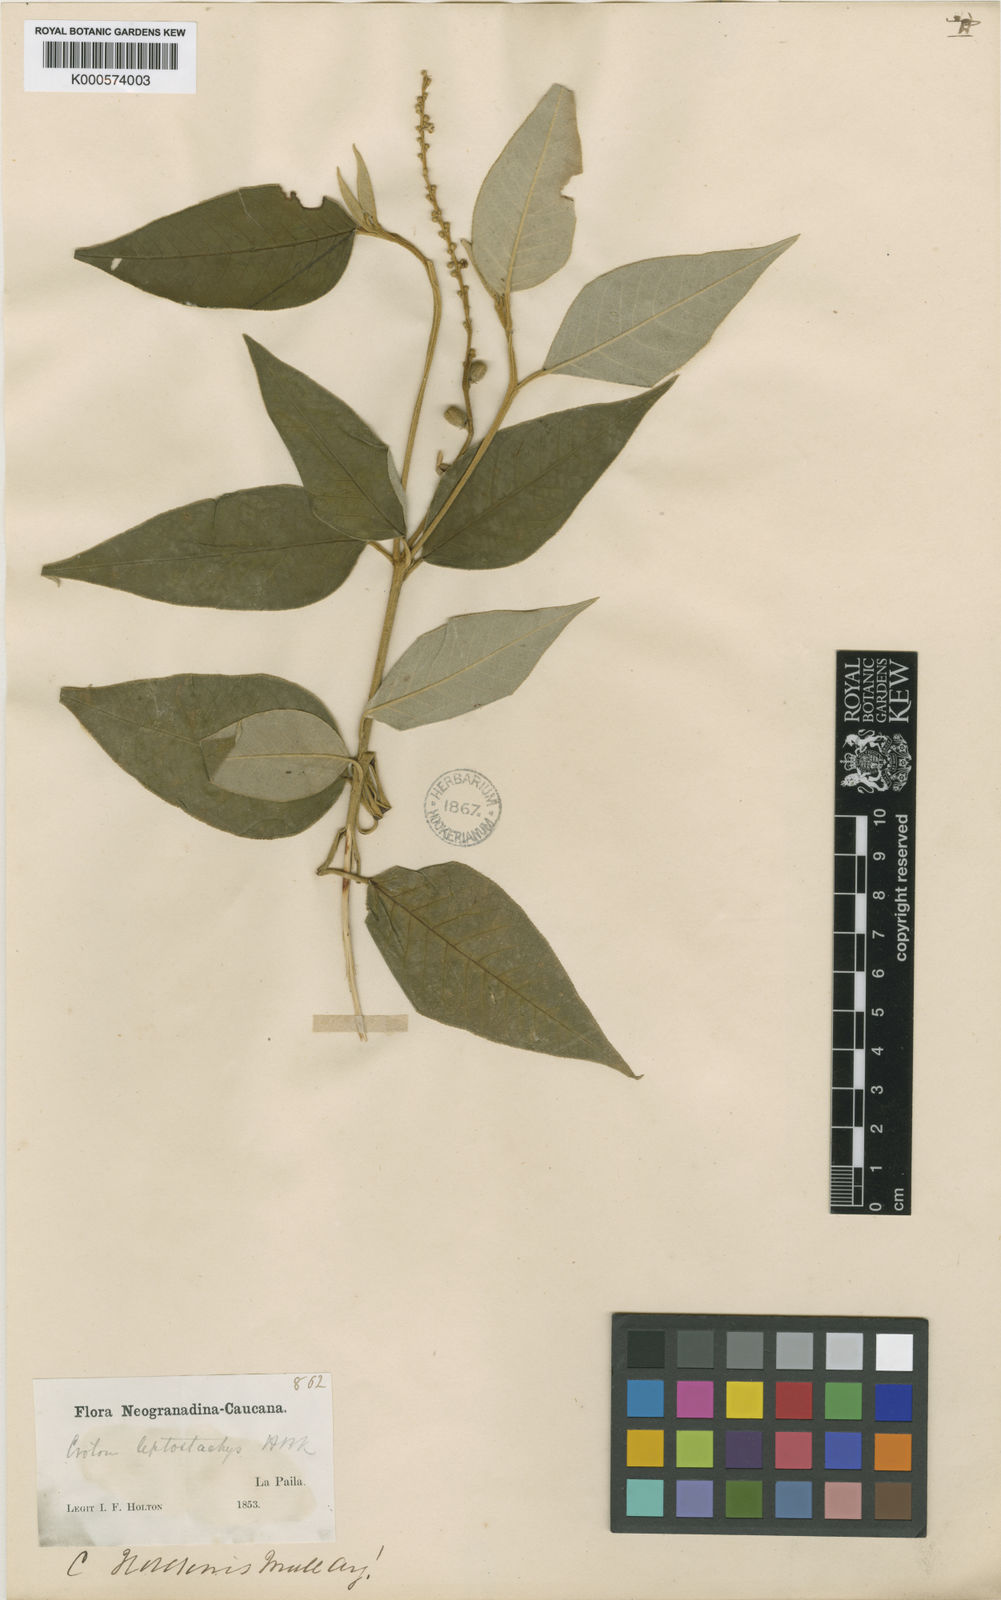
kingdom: Plantae
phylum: Tracheophyta
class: Magnoliopsida
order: Malpighiales
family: Euphorbiaceae
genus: Croton
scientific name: Croton
